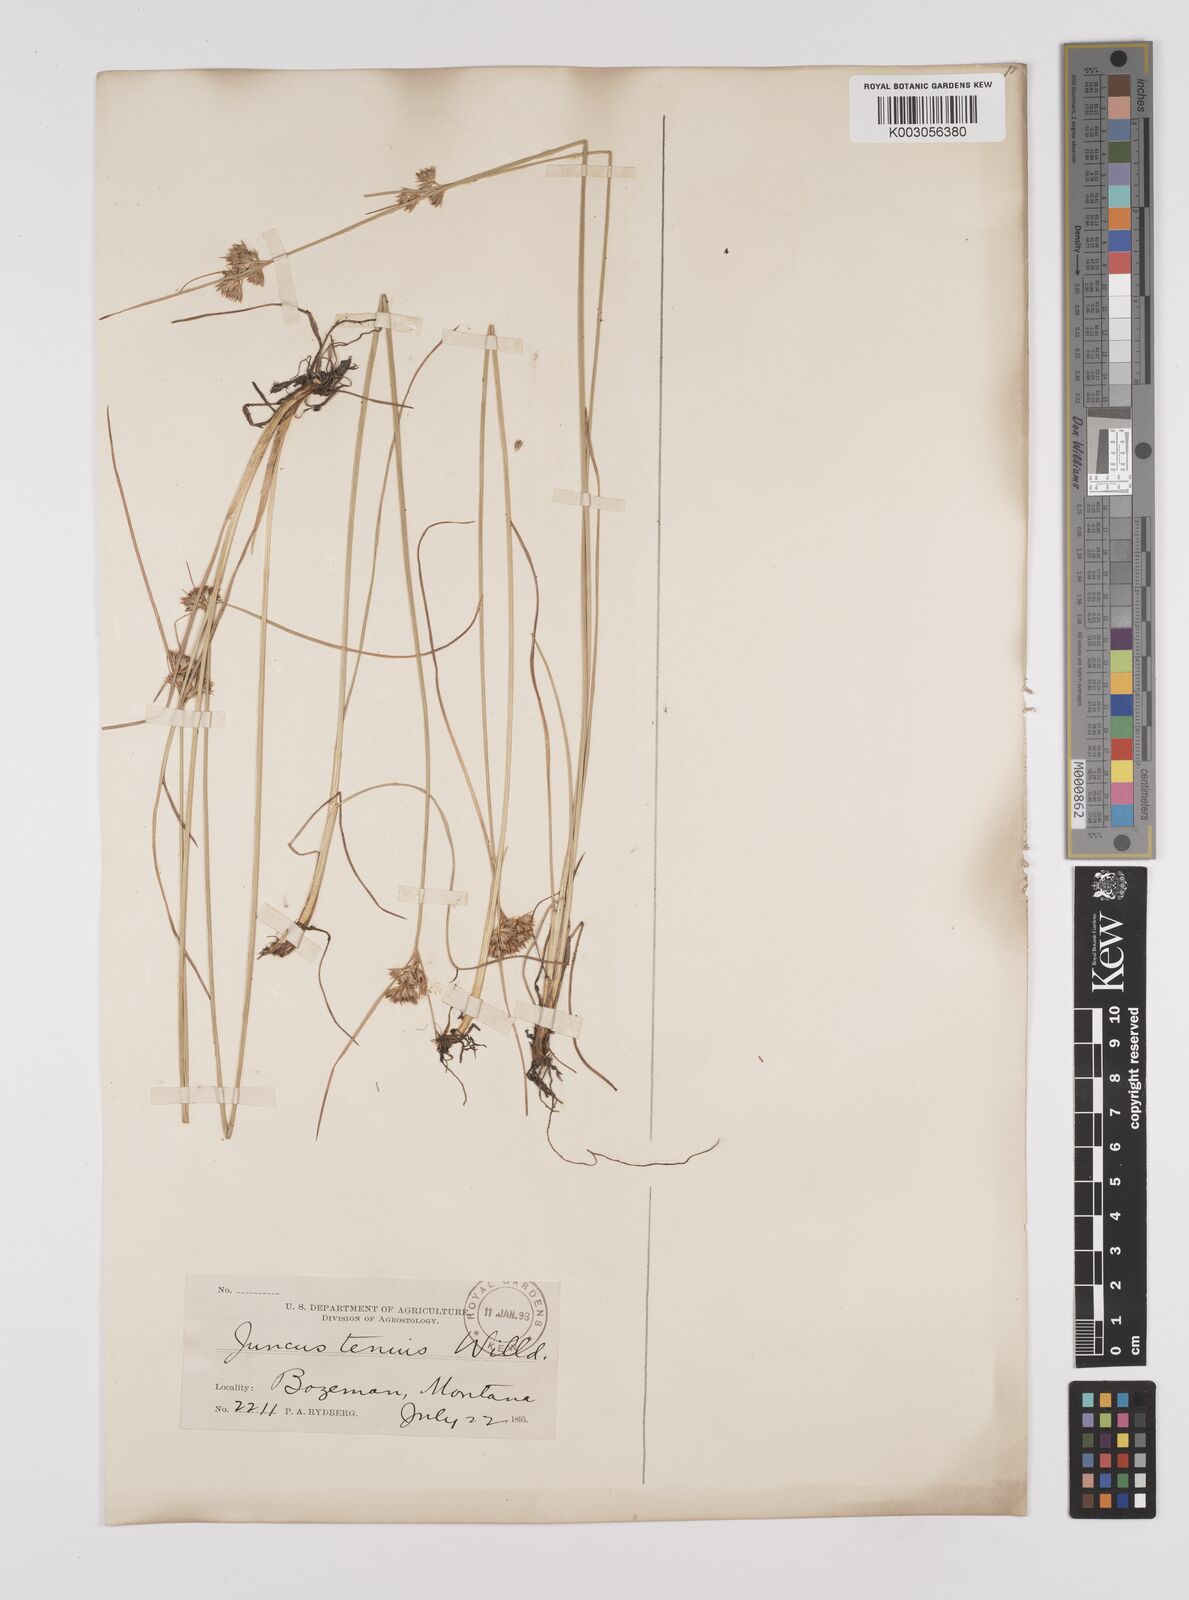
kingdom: Plantae
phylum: Tracheophyta
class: Liliopsida
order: Poales
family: Juncaceae
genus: Juncus
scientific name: Juncus tenuis
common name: Slender rush
